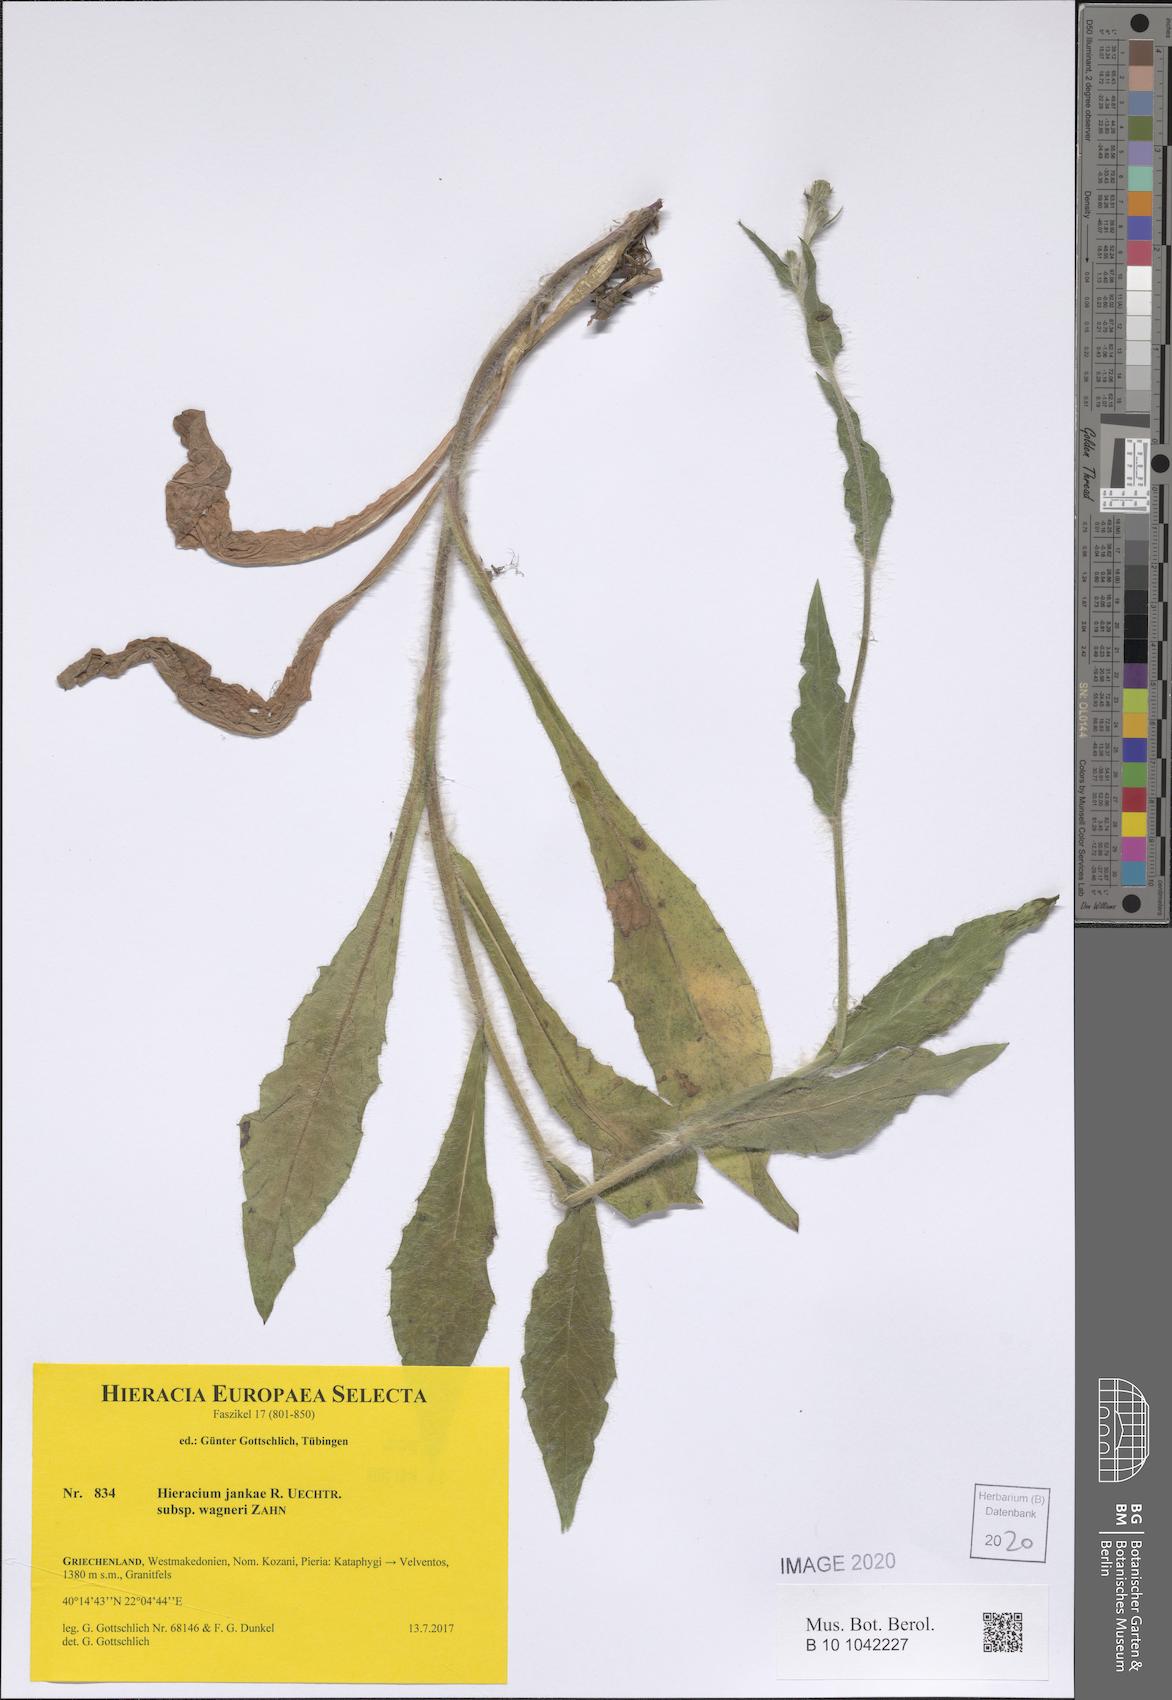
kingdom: Plantae
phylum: Tracheophyta
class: Magnoliopsida
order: Asterales
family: Asteraceae
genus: Hieracium
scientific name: Hieracium jankae
